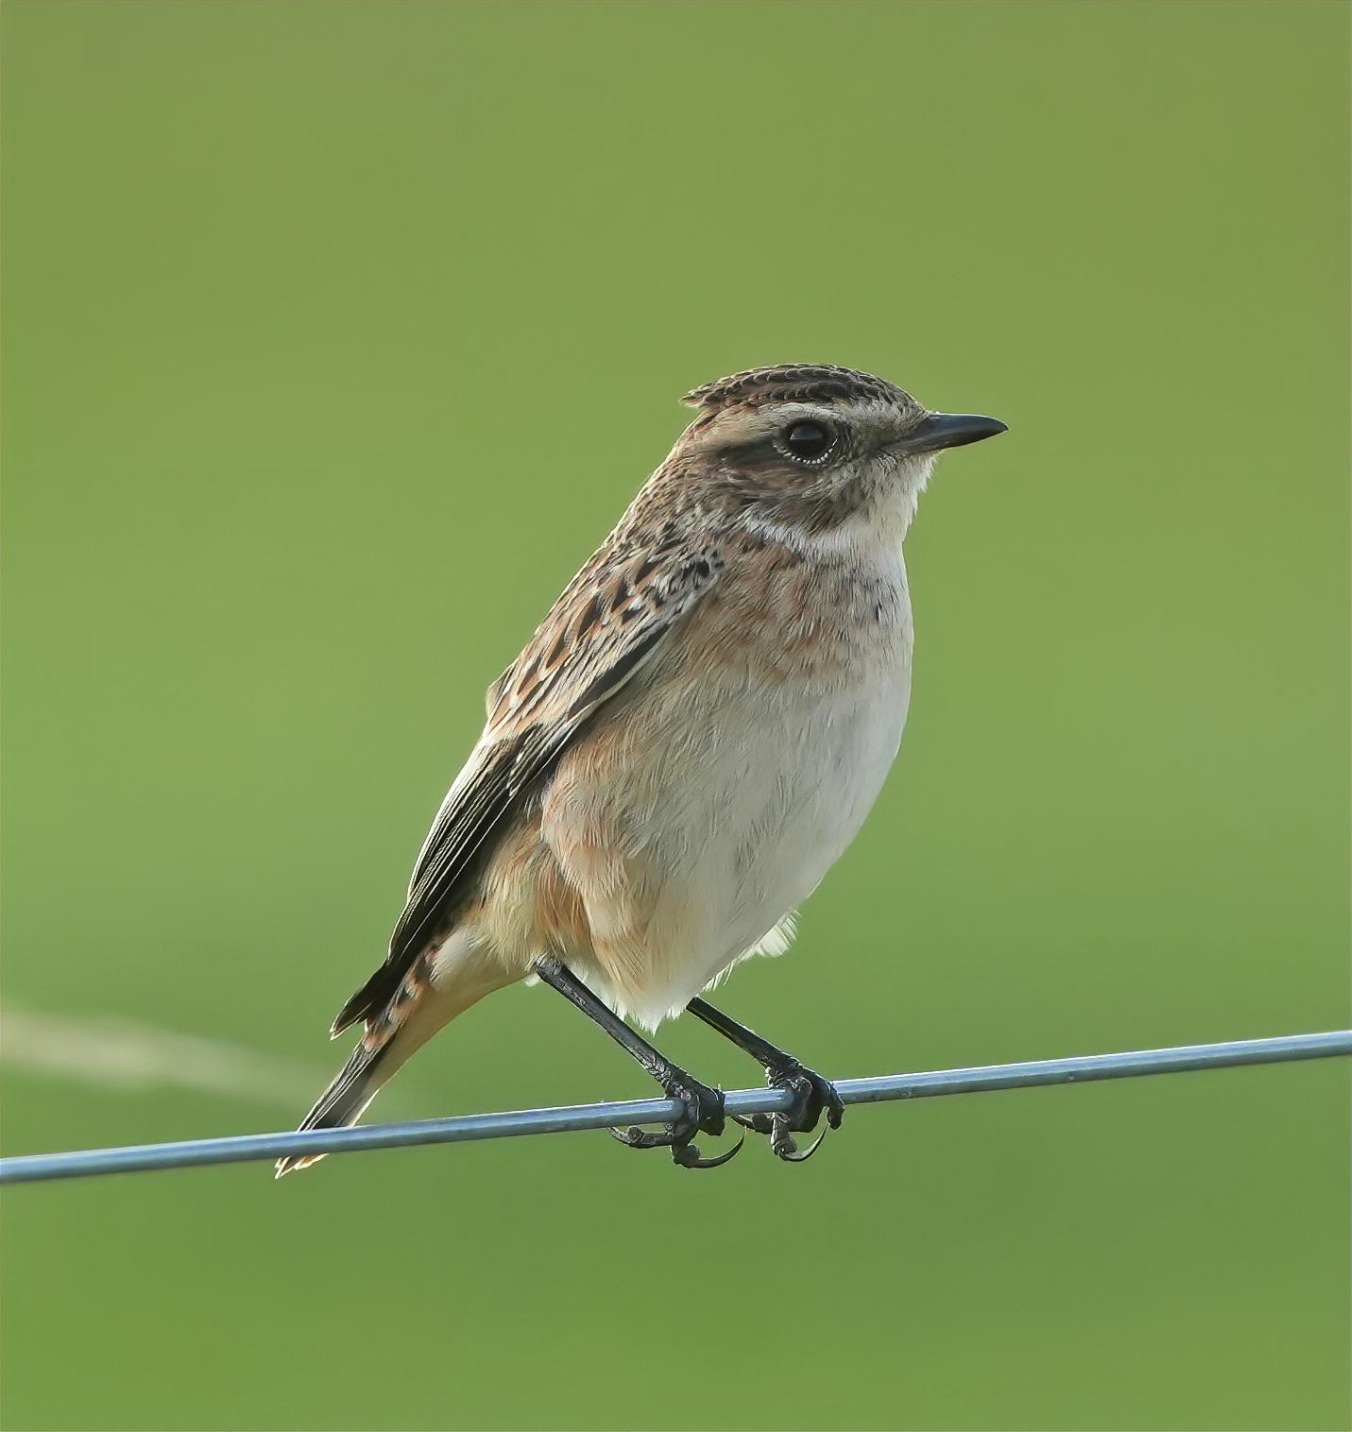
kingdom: Animalia
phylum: Chordata
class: Aves
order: Passeriformes
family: Muscicapidae
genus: Saxicola
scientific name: Saxicola rubetra
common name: Bynkefugl
